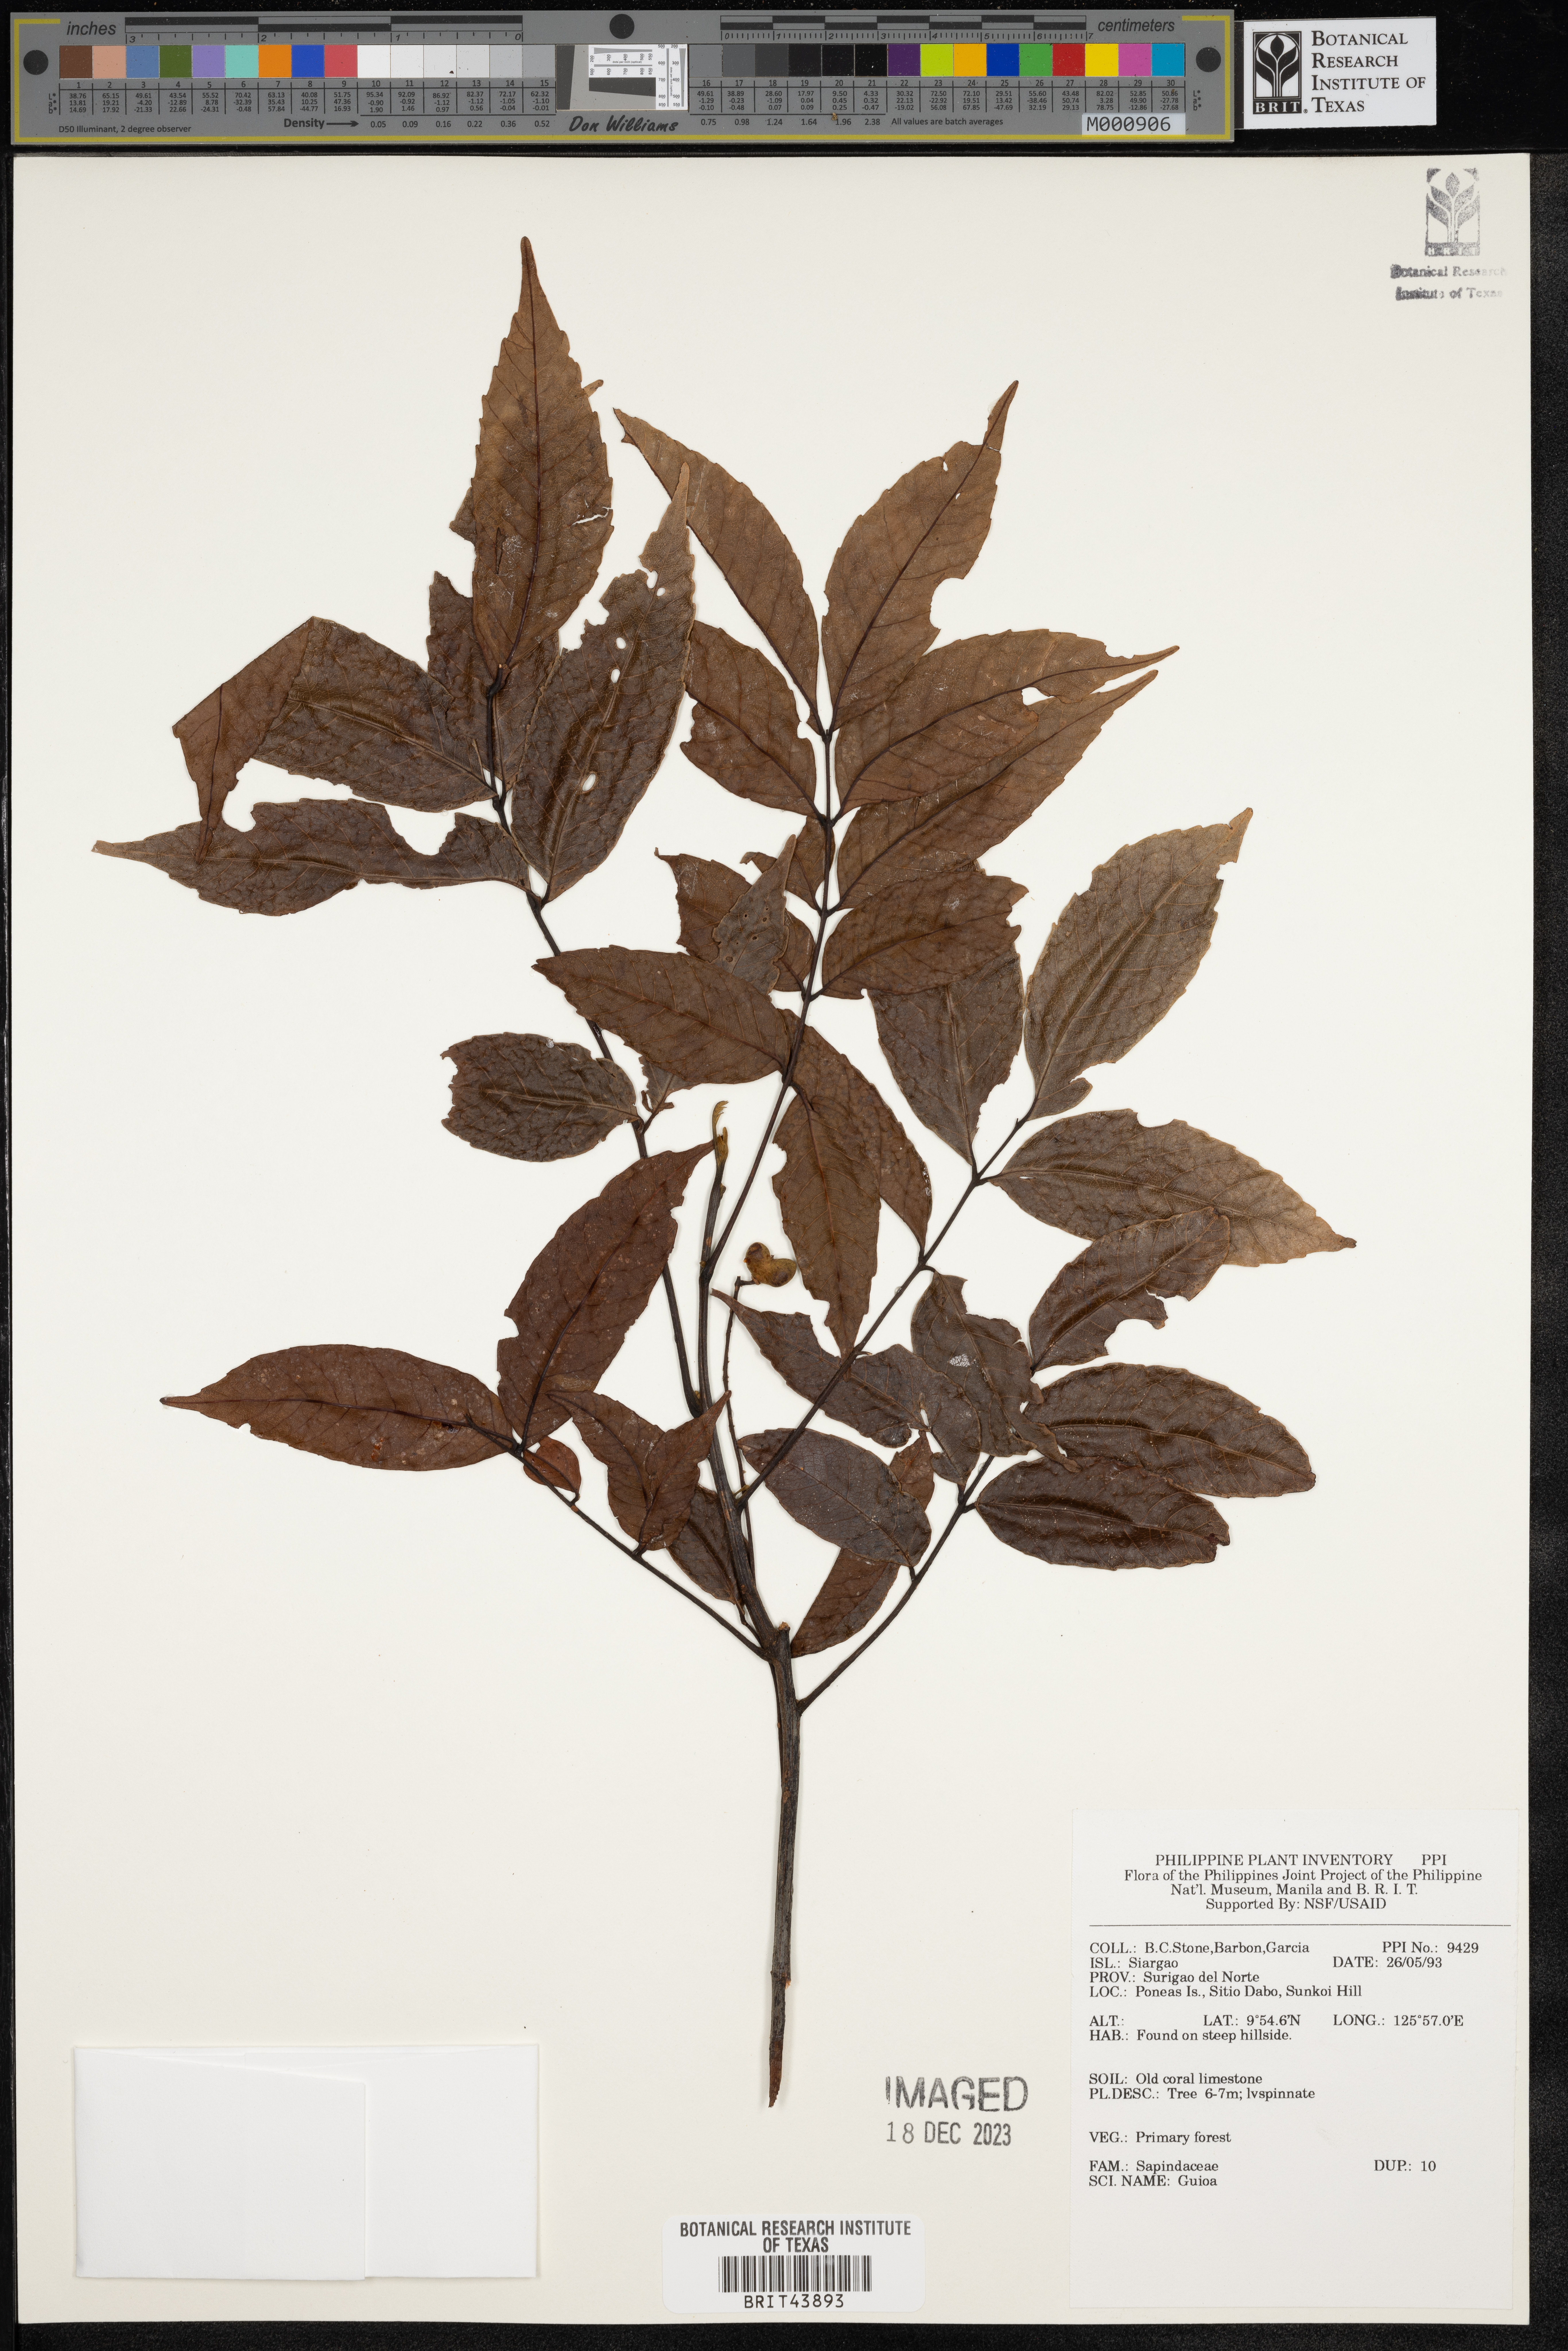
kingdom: Plantae
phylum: Tracheophyta
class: Magnoliopsida
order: Sapindales
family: Sapindaceae
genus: Guioa
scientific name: Guioa
